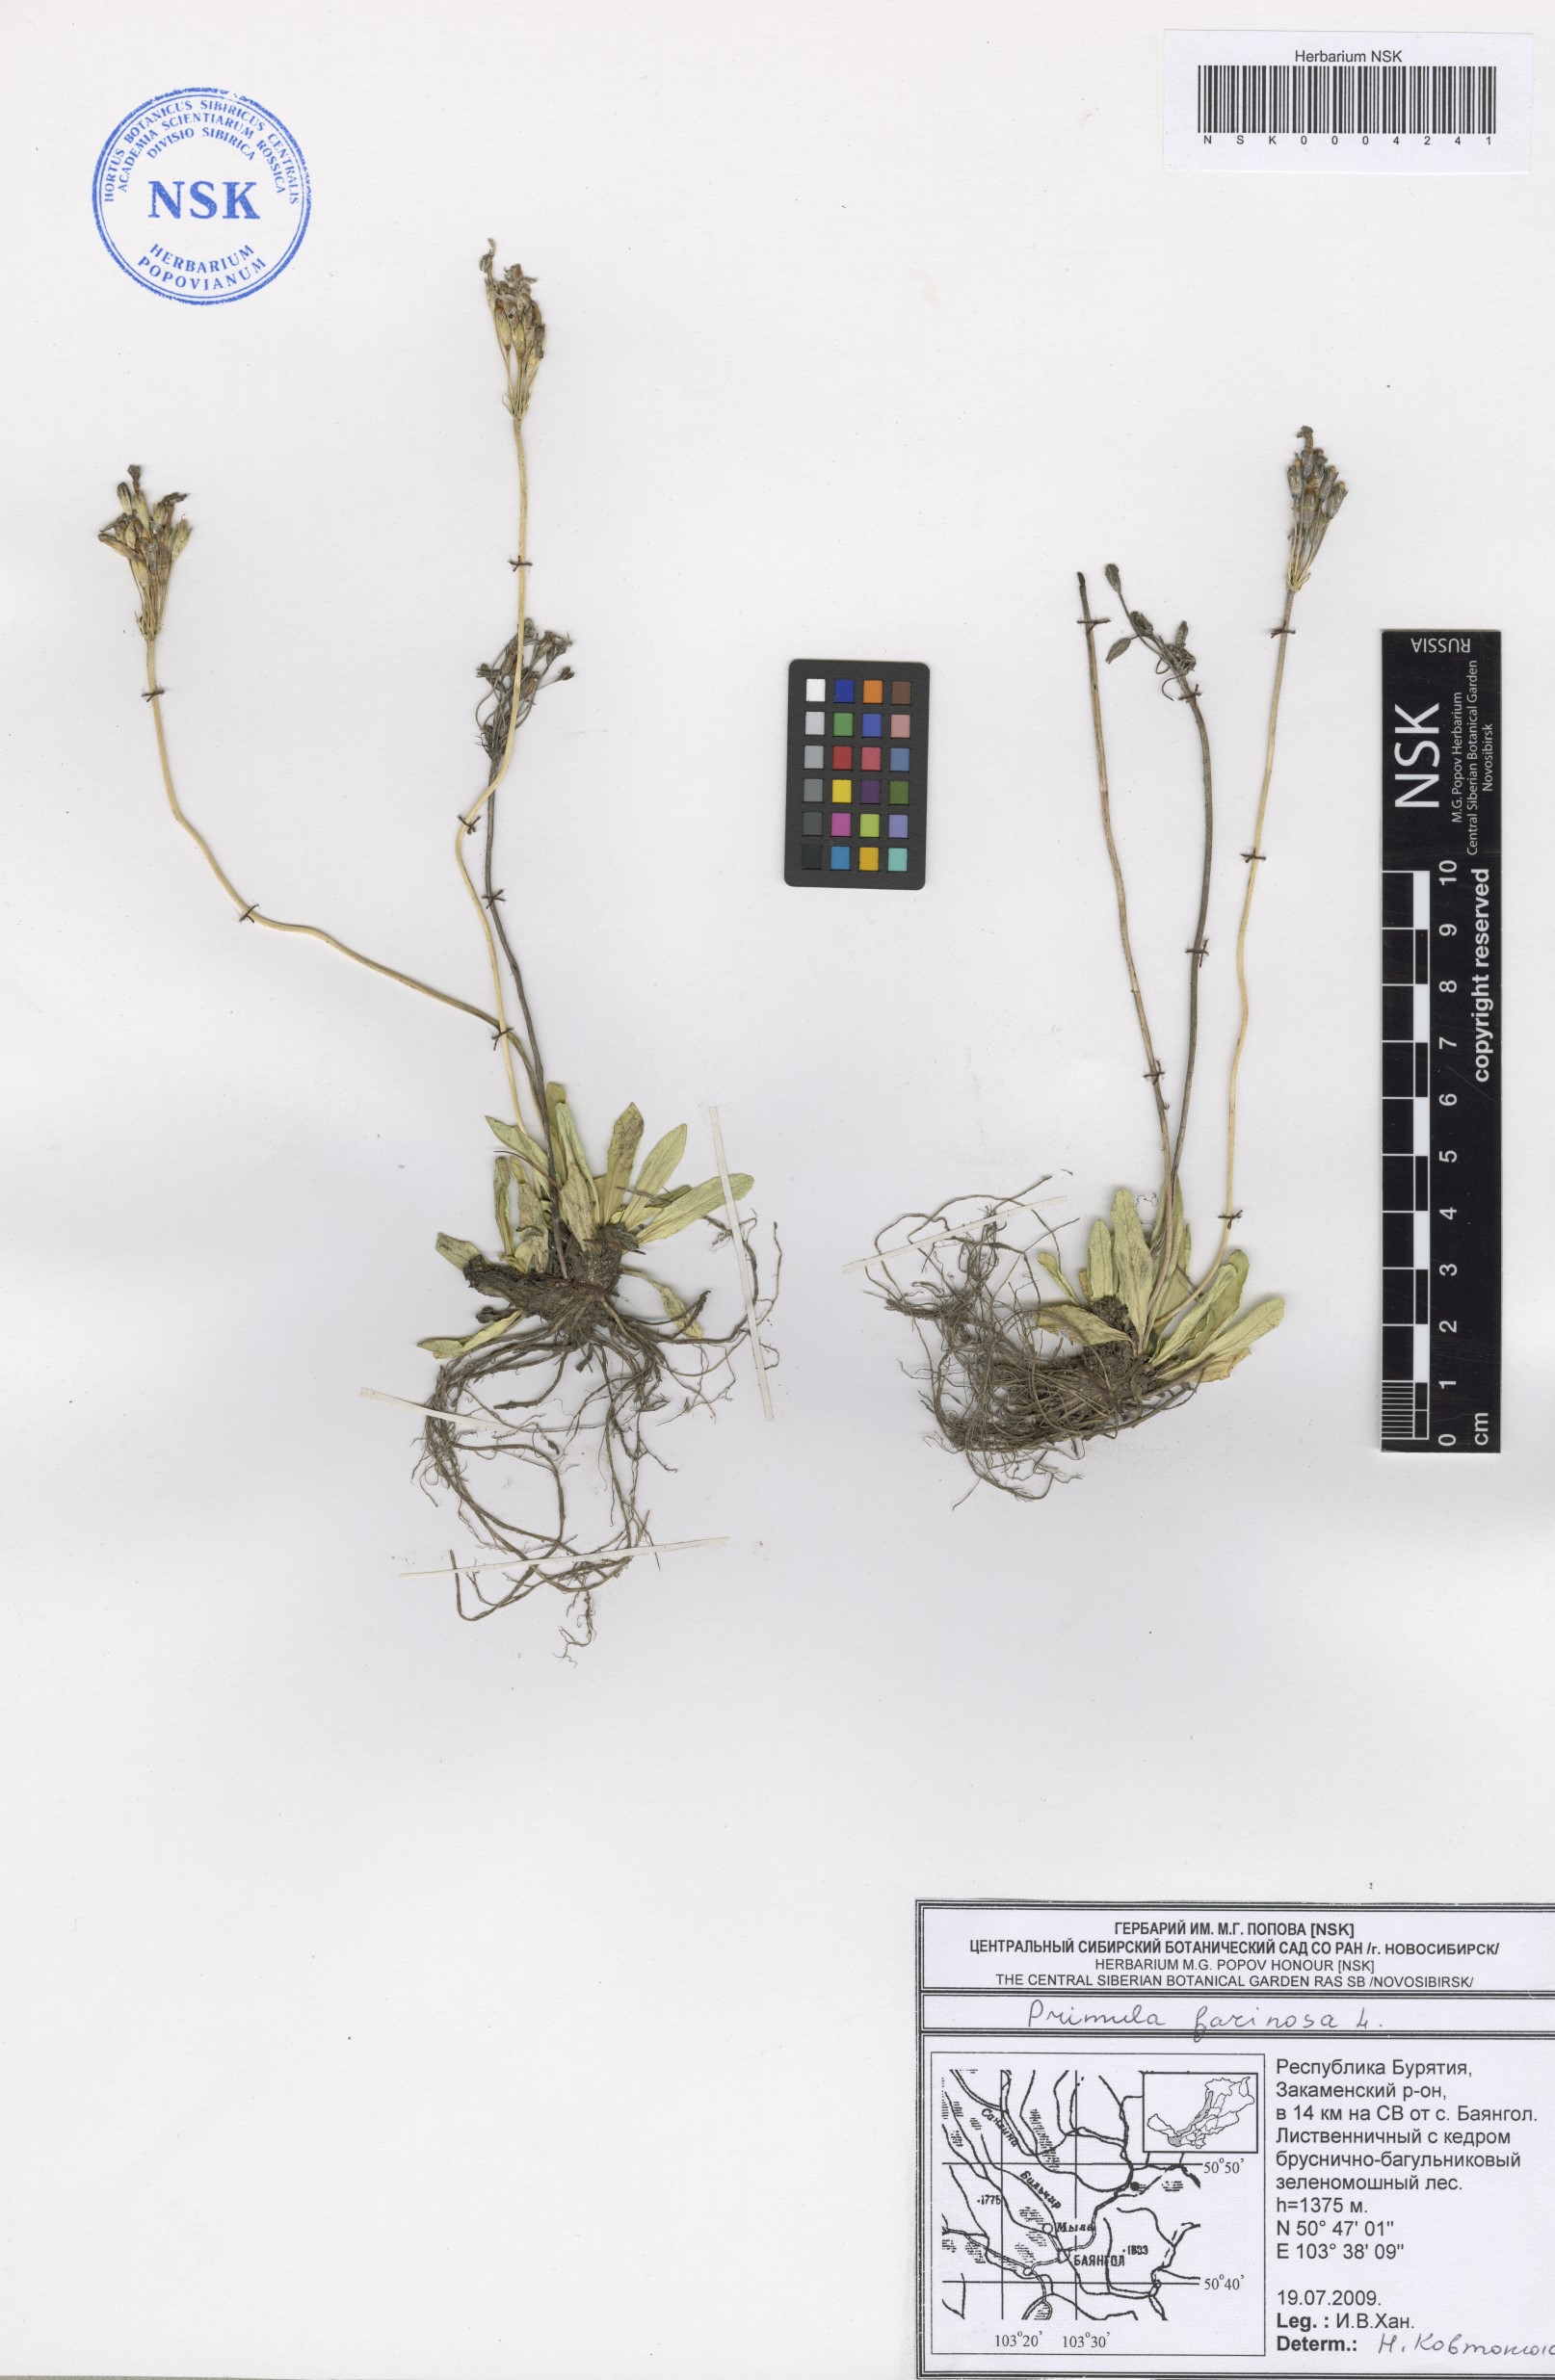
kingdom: Plantae
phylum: Tracheophyta
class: Magnoliopsida
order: Ericales
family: Primulaceae
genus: Primula
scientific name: Primula farinosa
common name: Bird's-eye primrose
